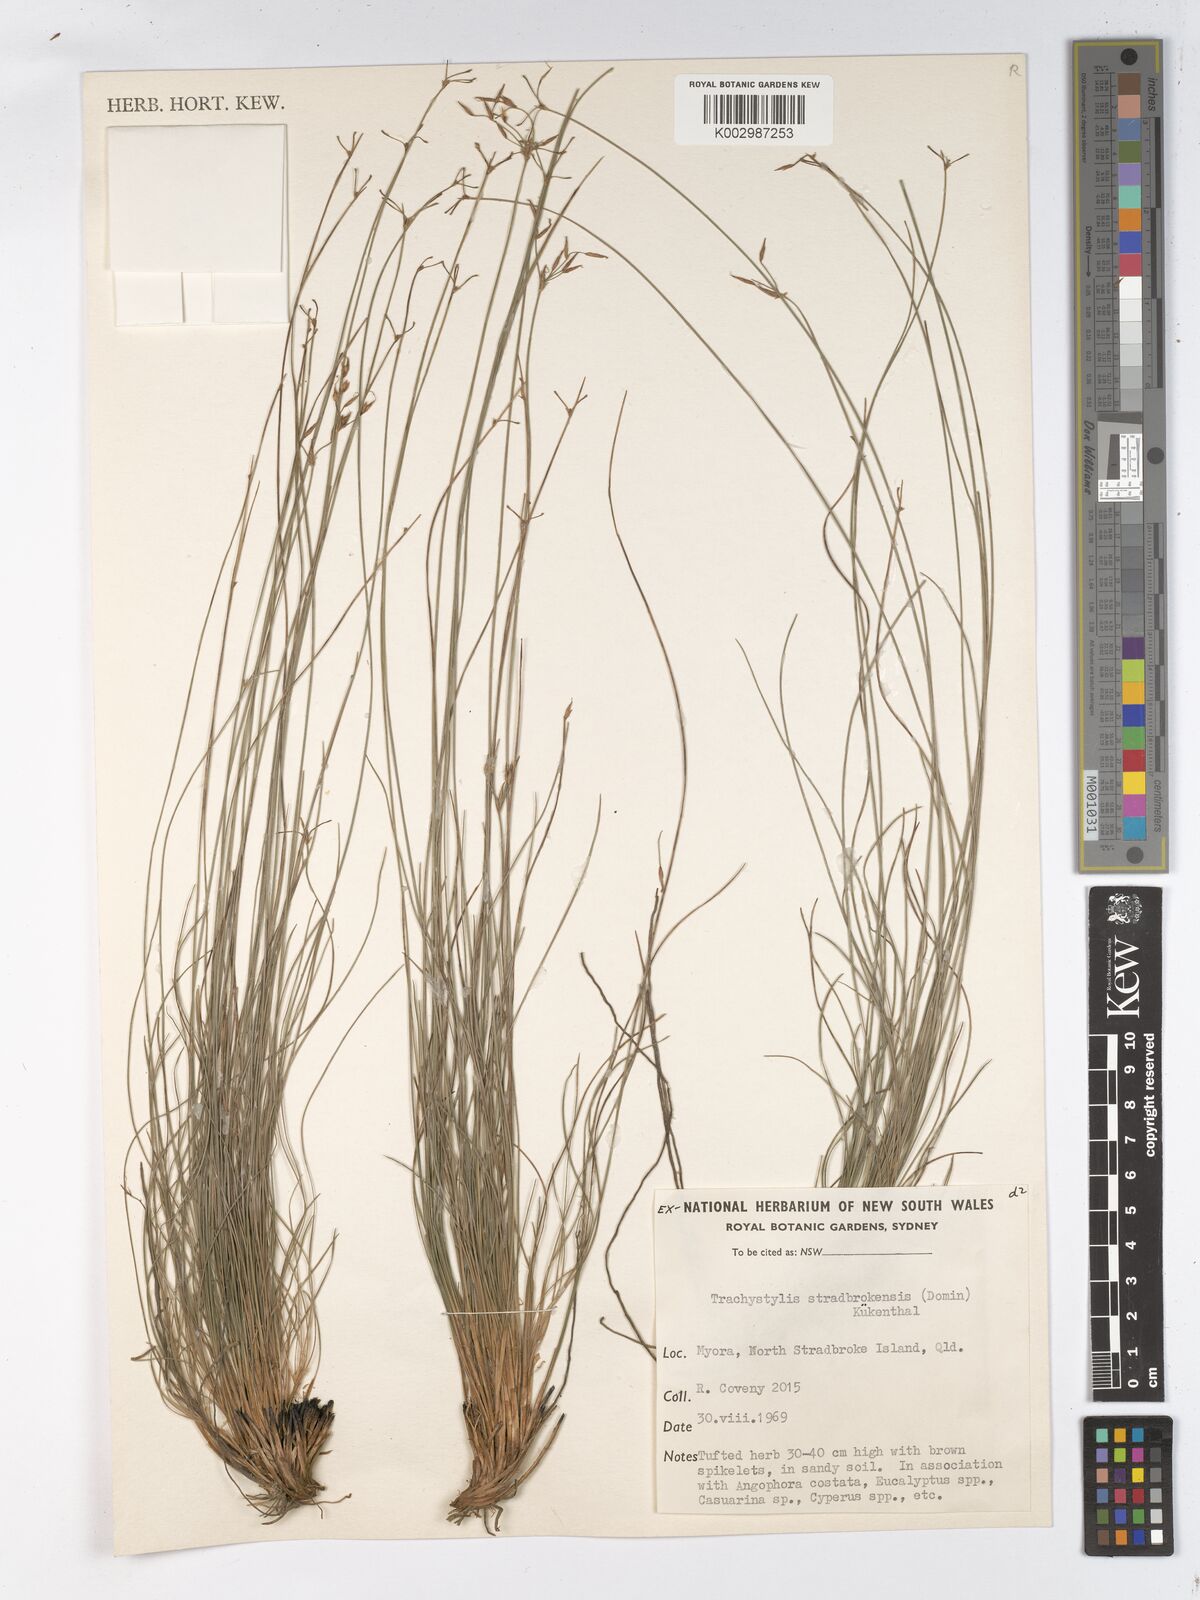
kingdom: Plantae
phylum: Tracheophyta
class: Liliopsida
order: Poales
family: Cyperaceae
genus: Trachystylis
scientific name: Trachystylis stradbrokensis
